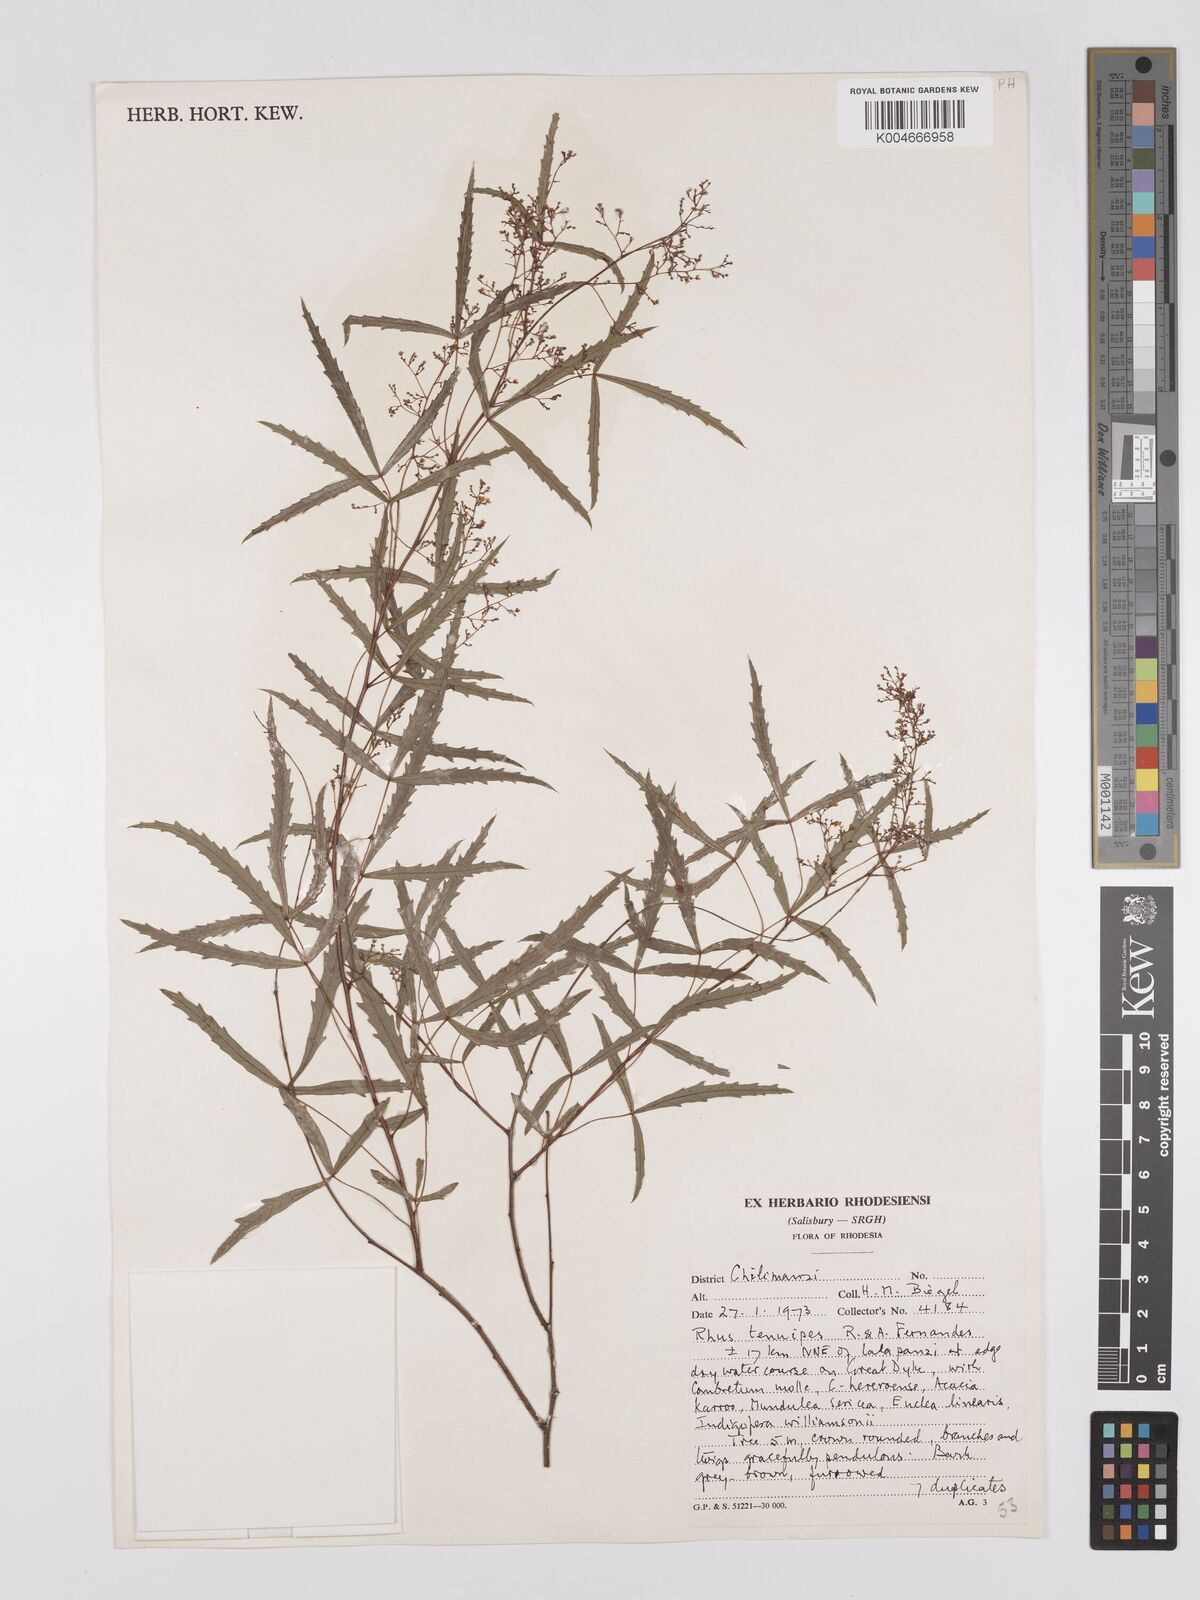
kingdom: Plantae
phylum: Tracheophyta
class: Magnoliopsida
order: Sapindales
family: Anacardiaceae
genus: Searsia
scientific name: Searsia tenuipes
